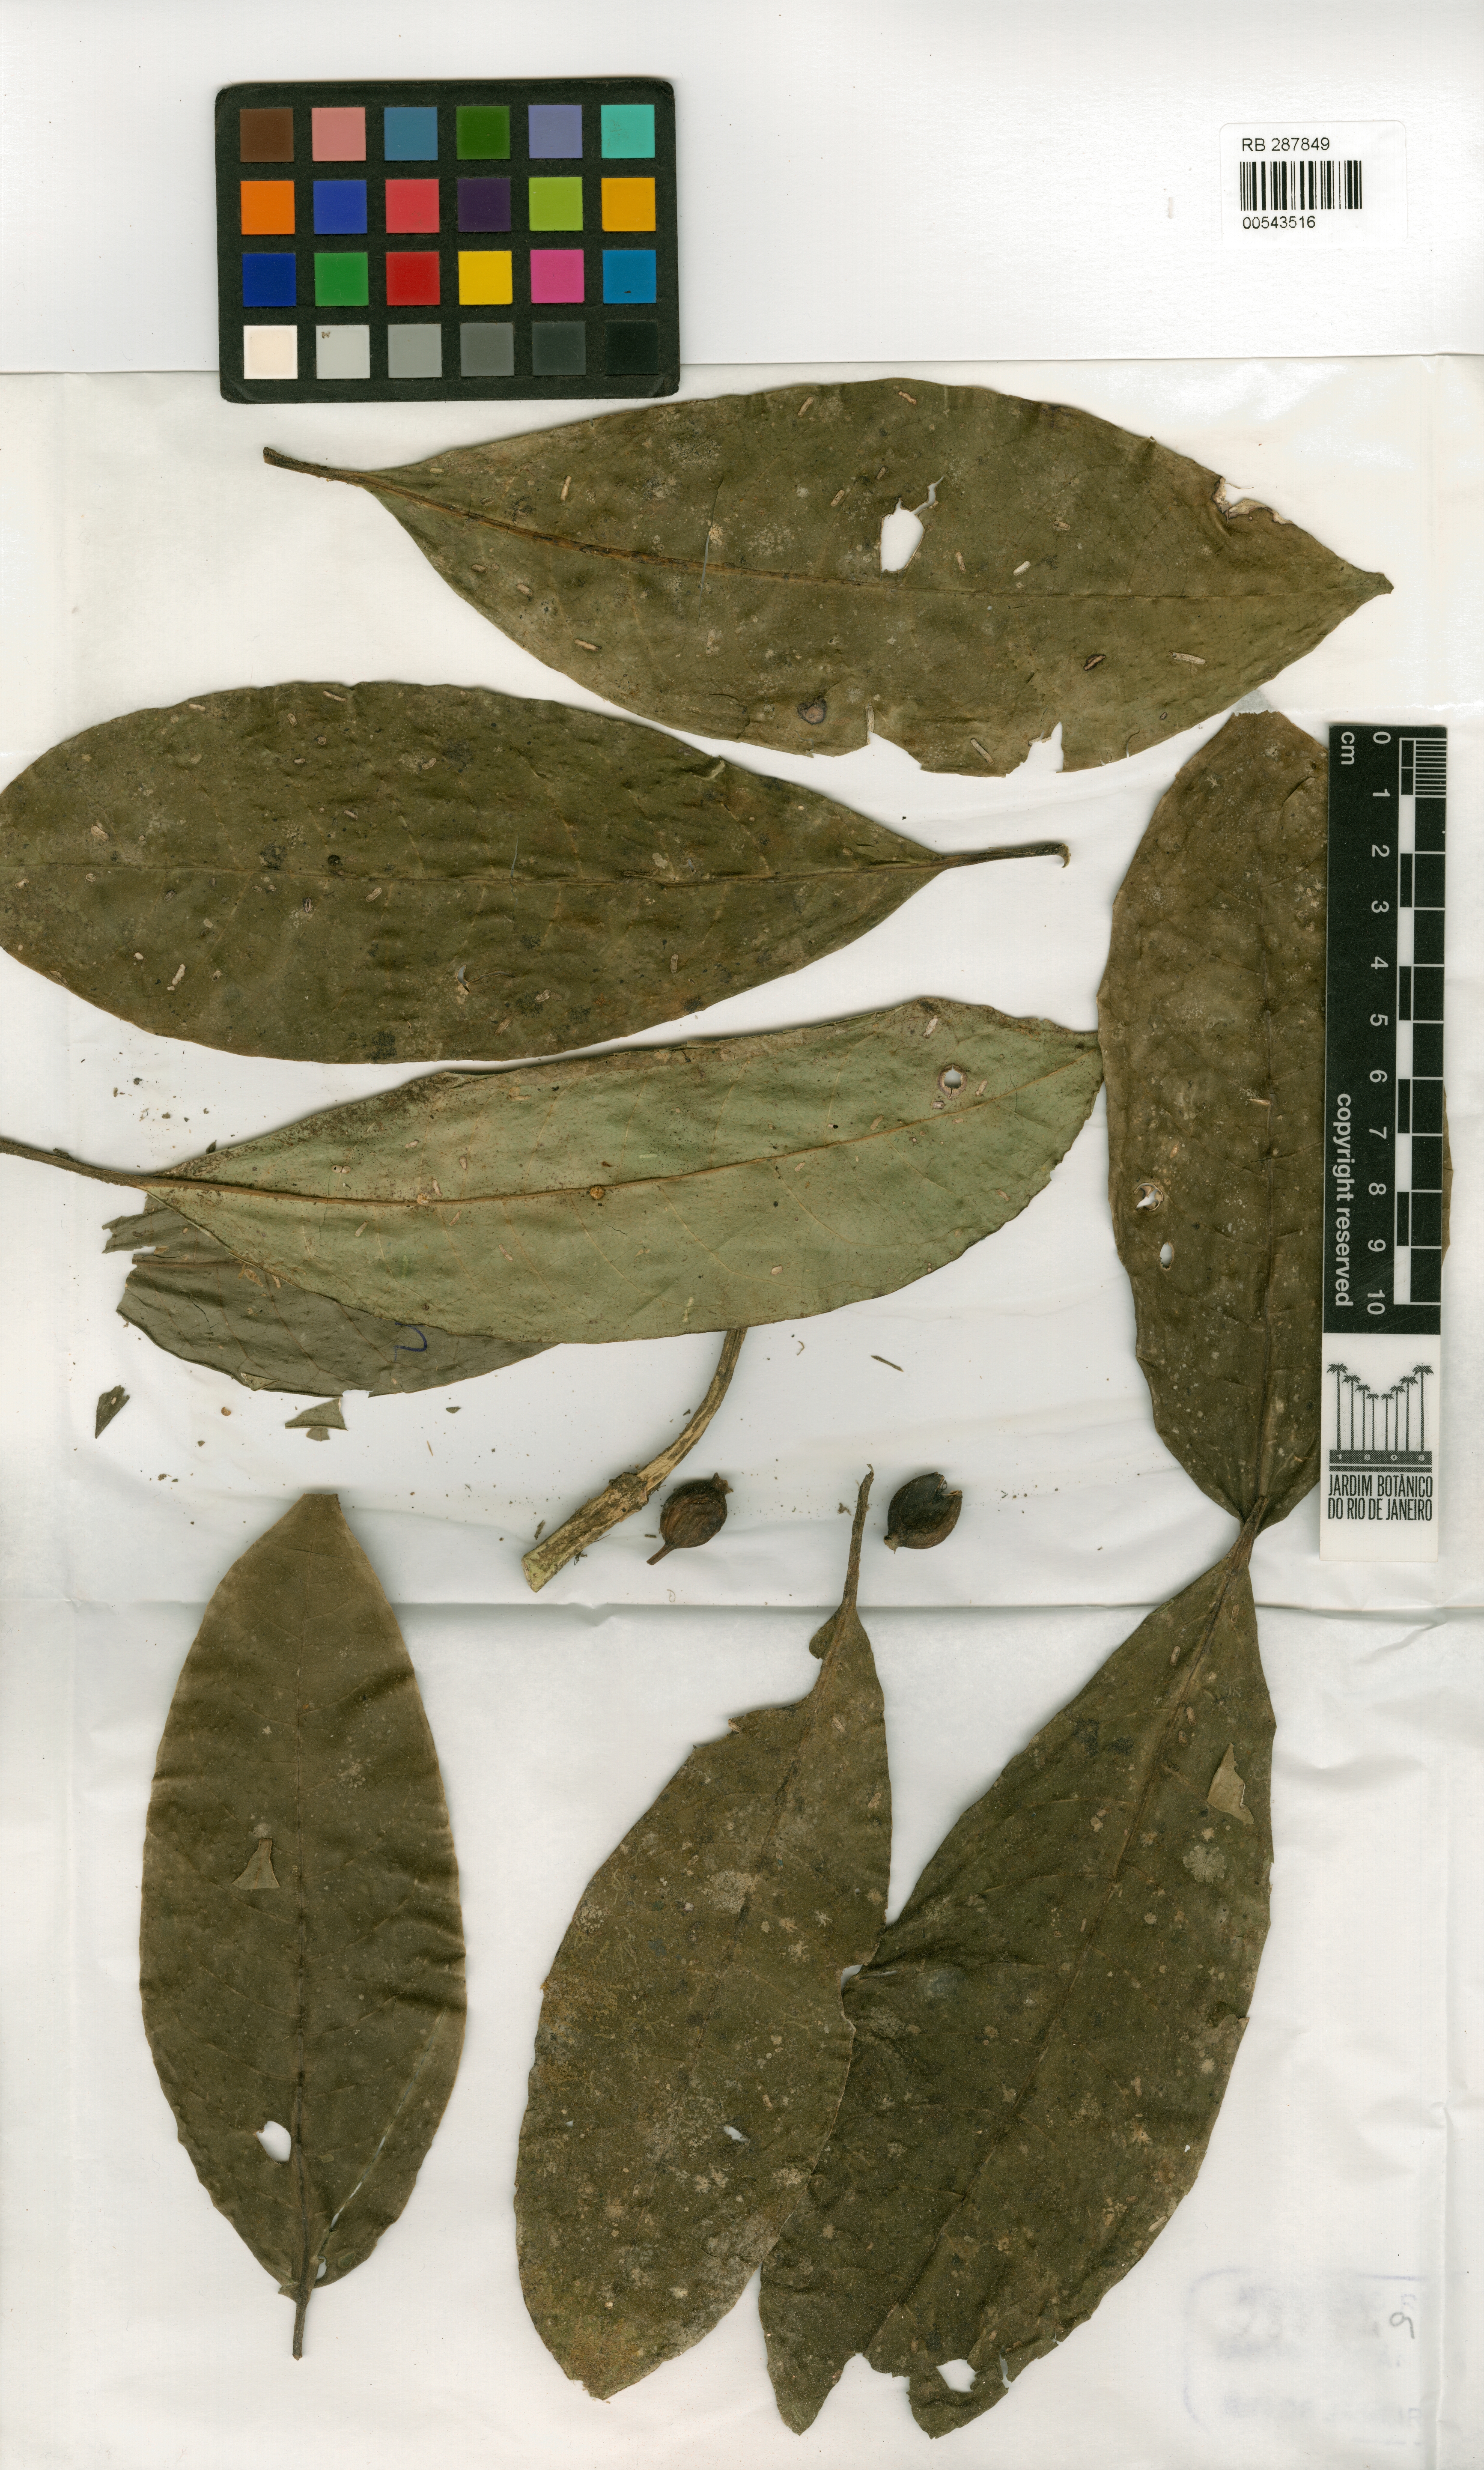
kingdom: Plantae
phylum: Tracheophyta
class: Magnoliopsida
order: Gentianales
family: Rubiaceae
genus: Coussarea
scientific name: Coussarea friburgensis
